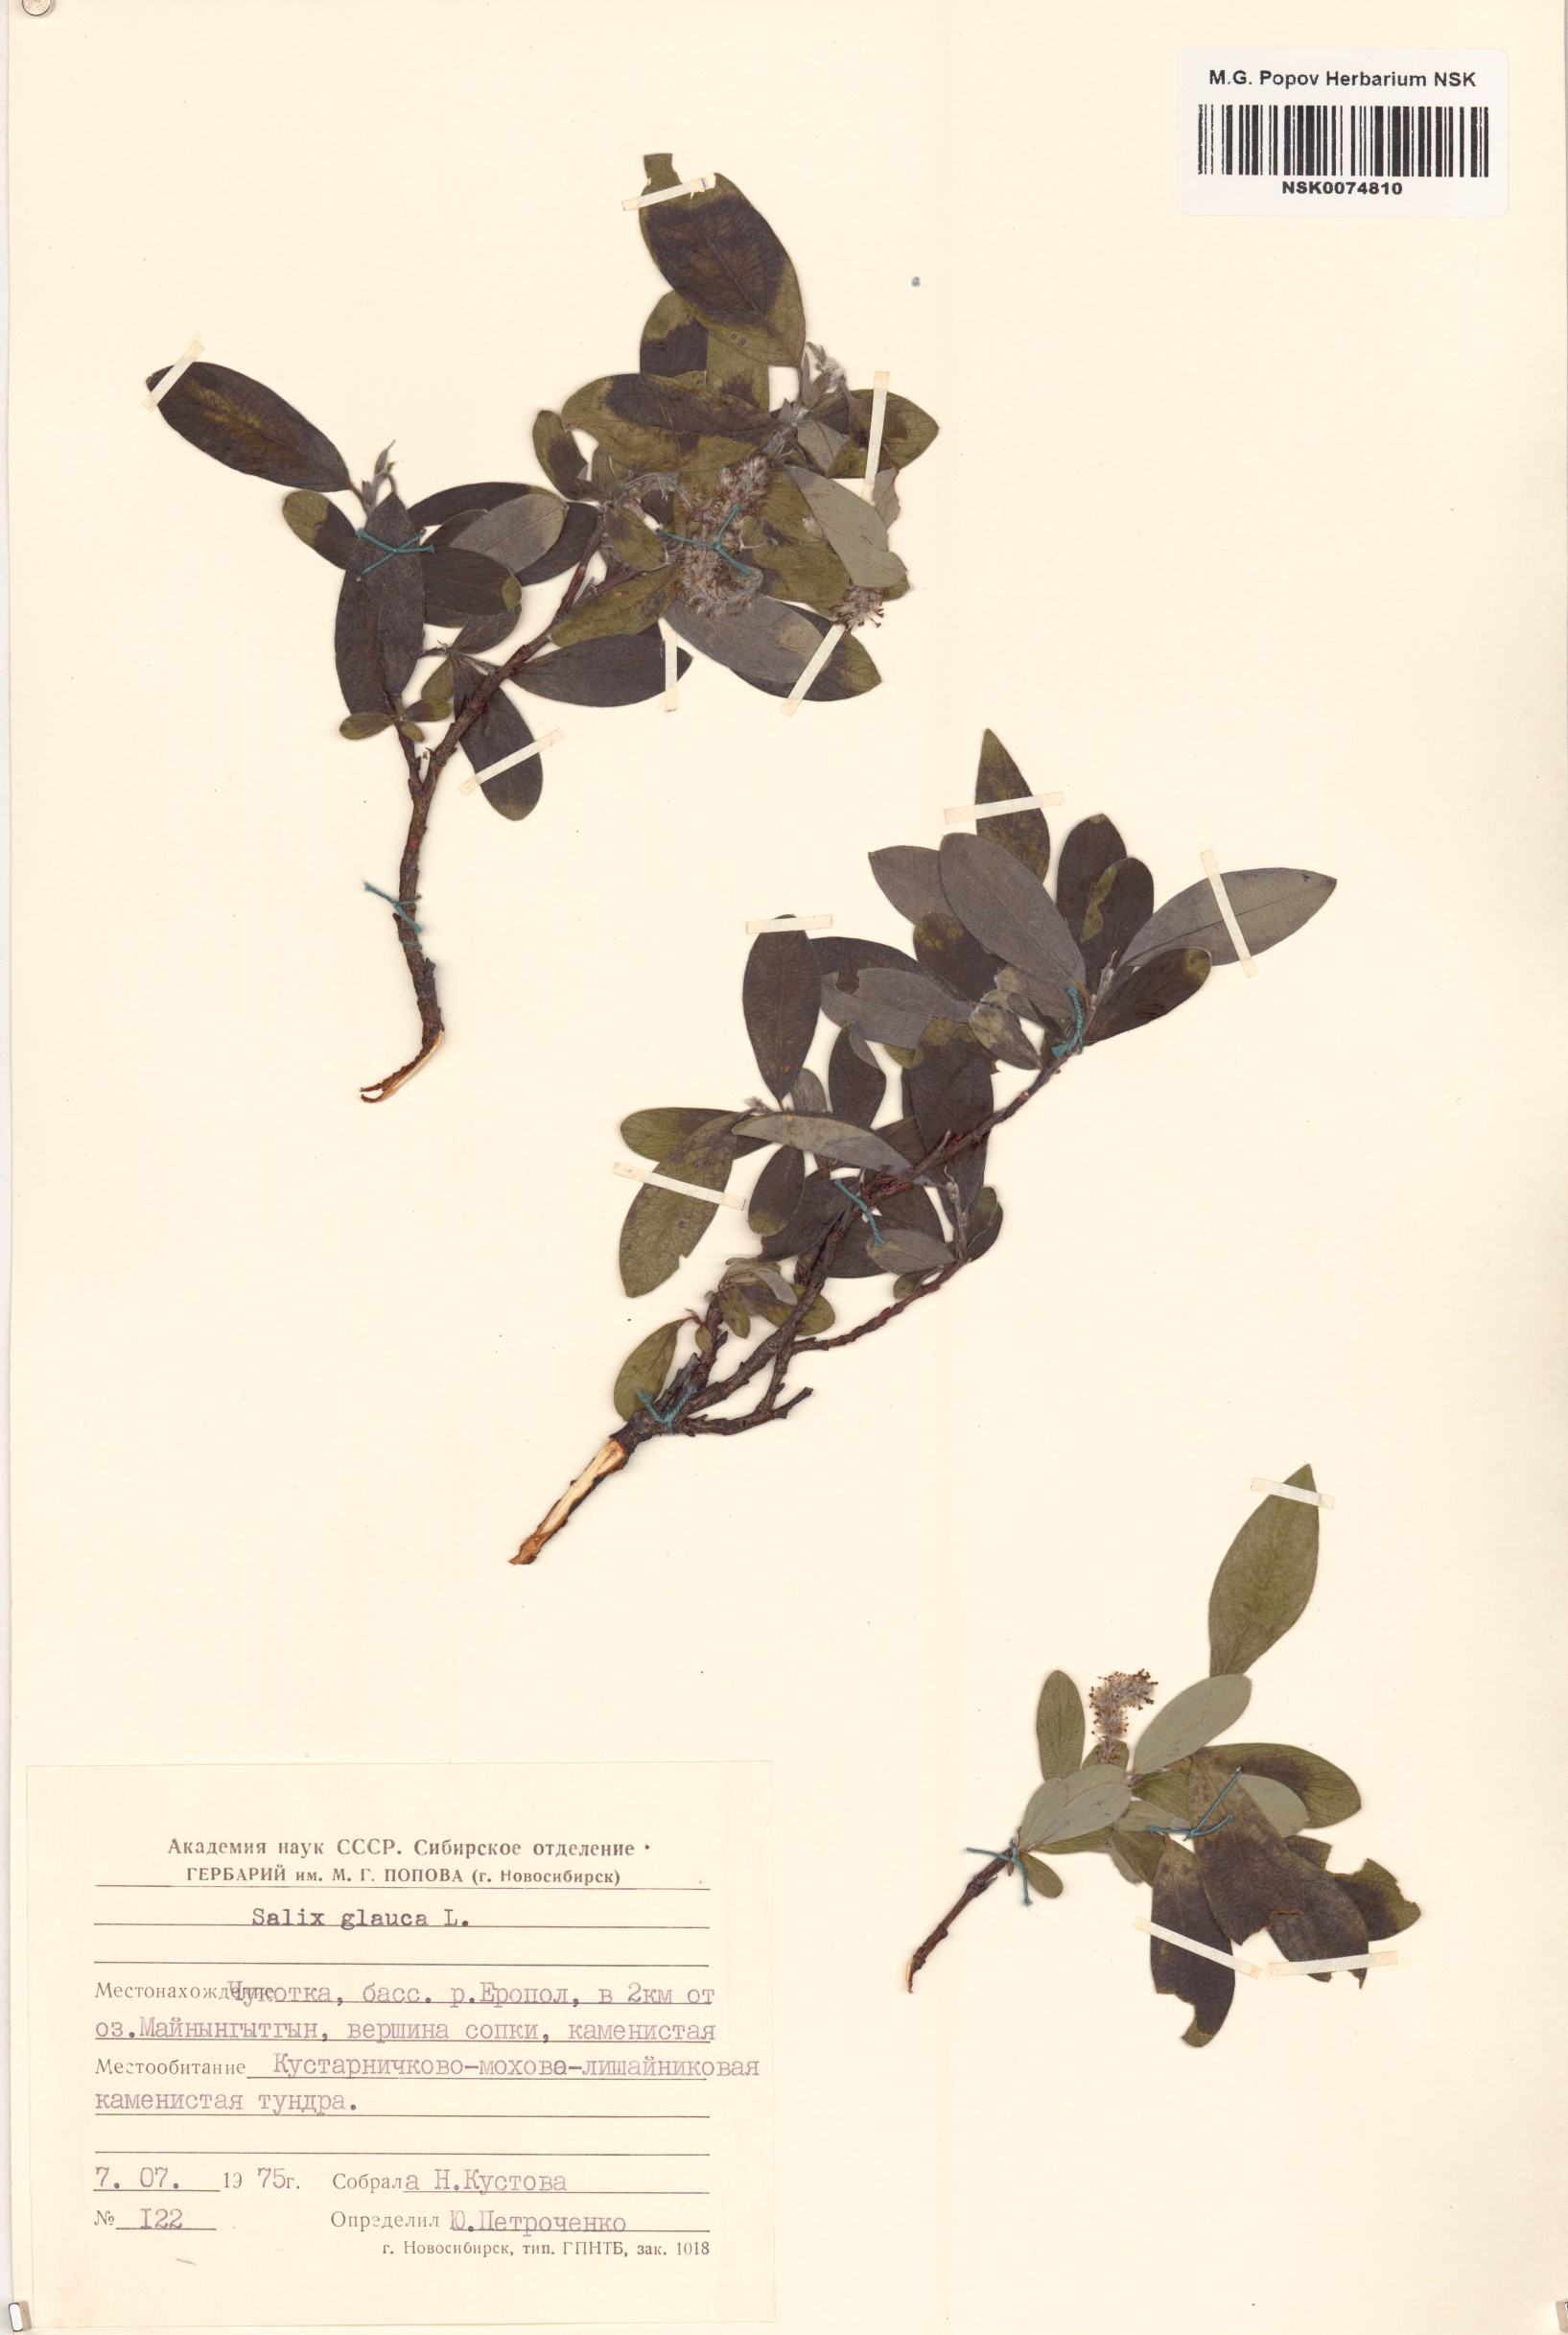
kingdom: Plantae
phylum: Tracheophyta
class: Magnoliopsida
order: Malpighiales
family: Salicaceae
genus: Salix
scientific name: Salix glauca
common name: Glaucous willow
